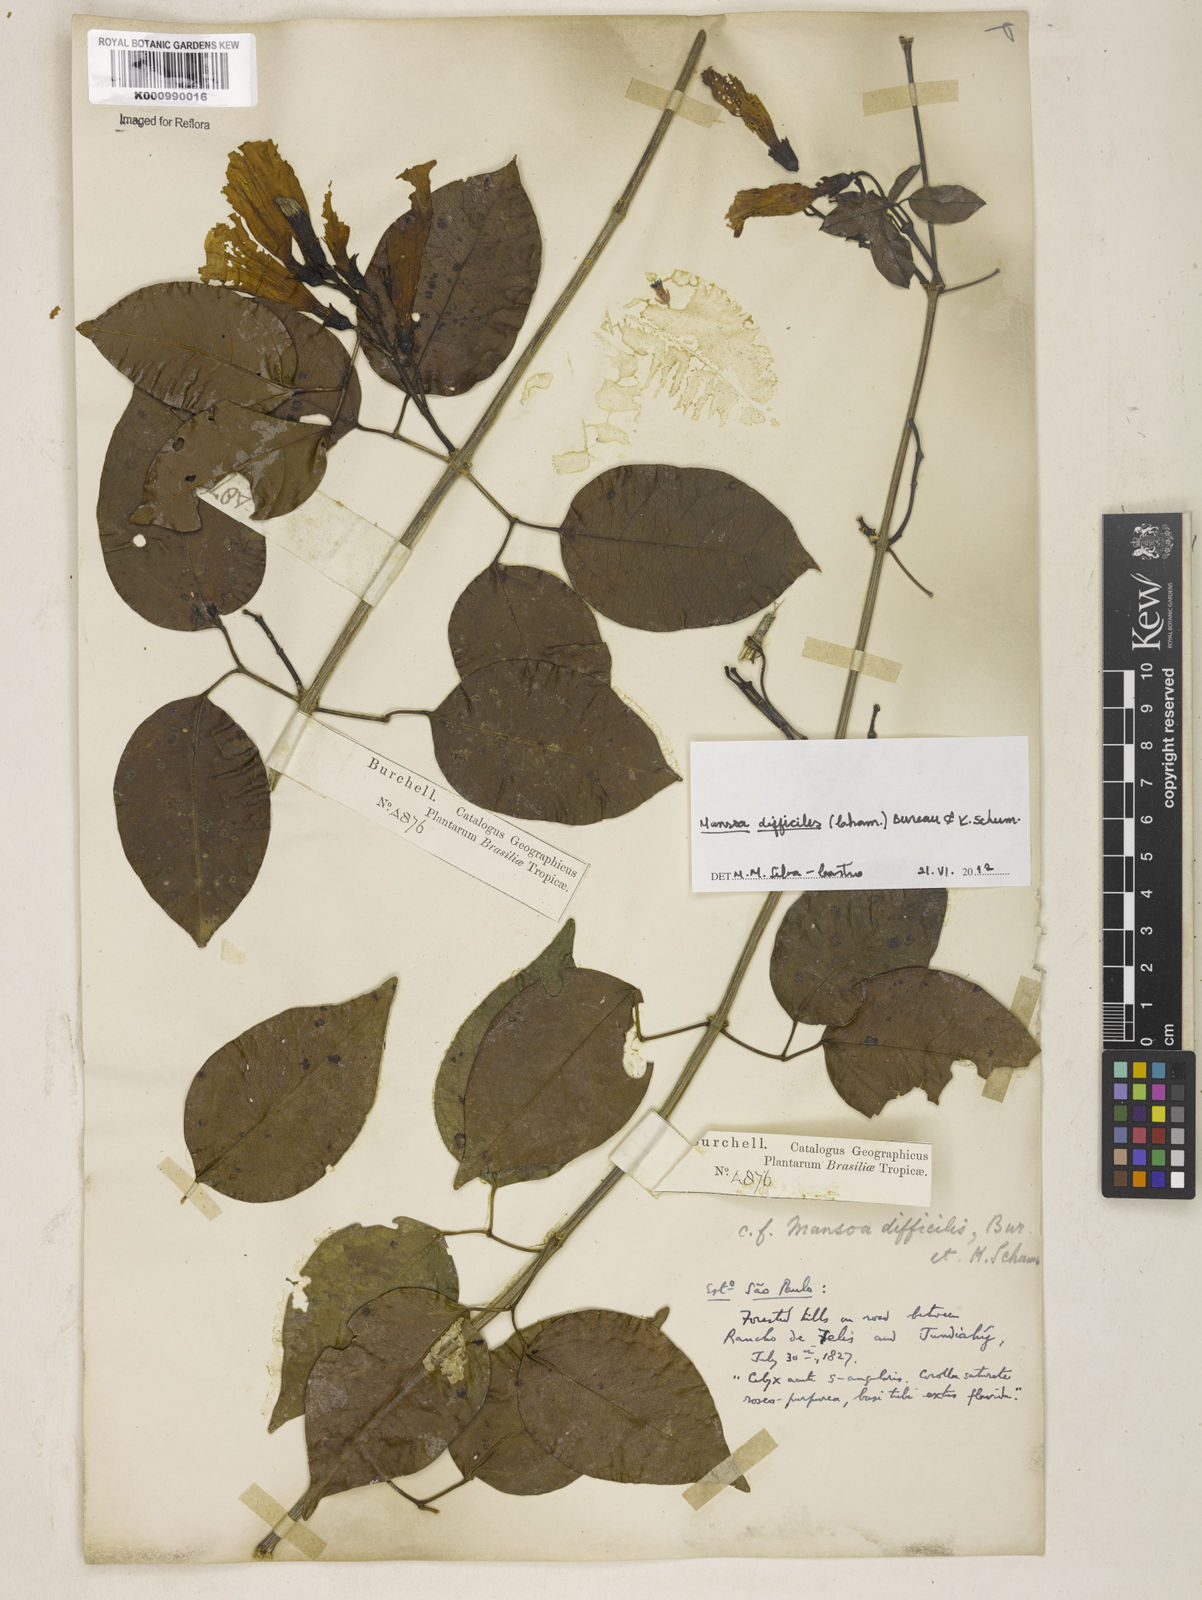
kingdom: Plantae
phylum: Tracheophyta
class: Magnoliopsida
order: Lamiales
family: Bignoniaceae
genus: Mansoa
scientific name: Mansoa difficilis
